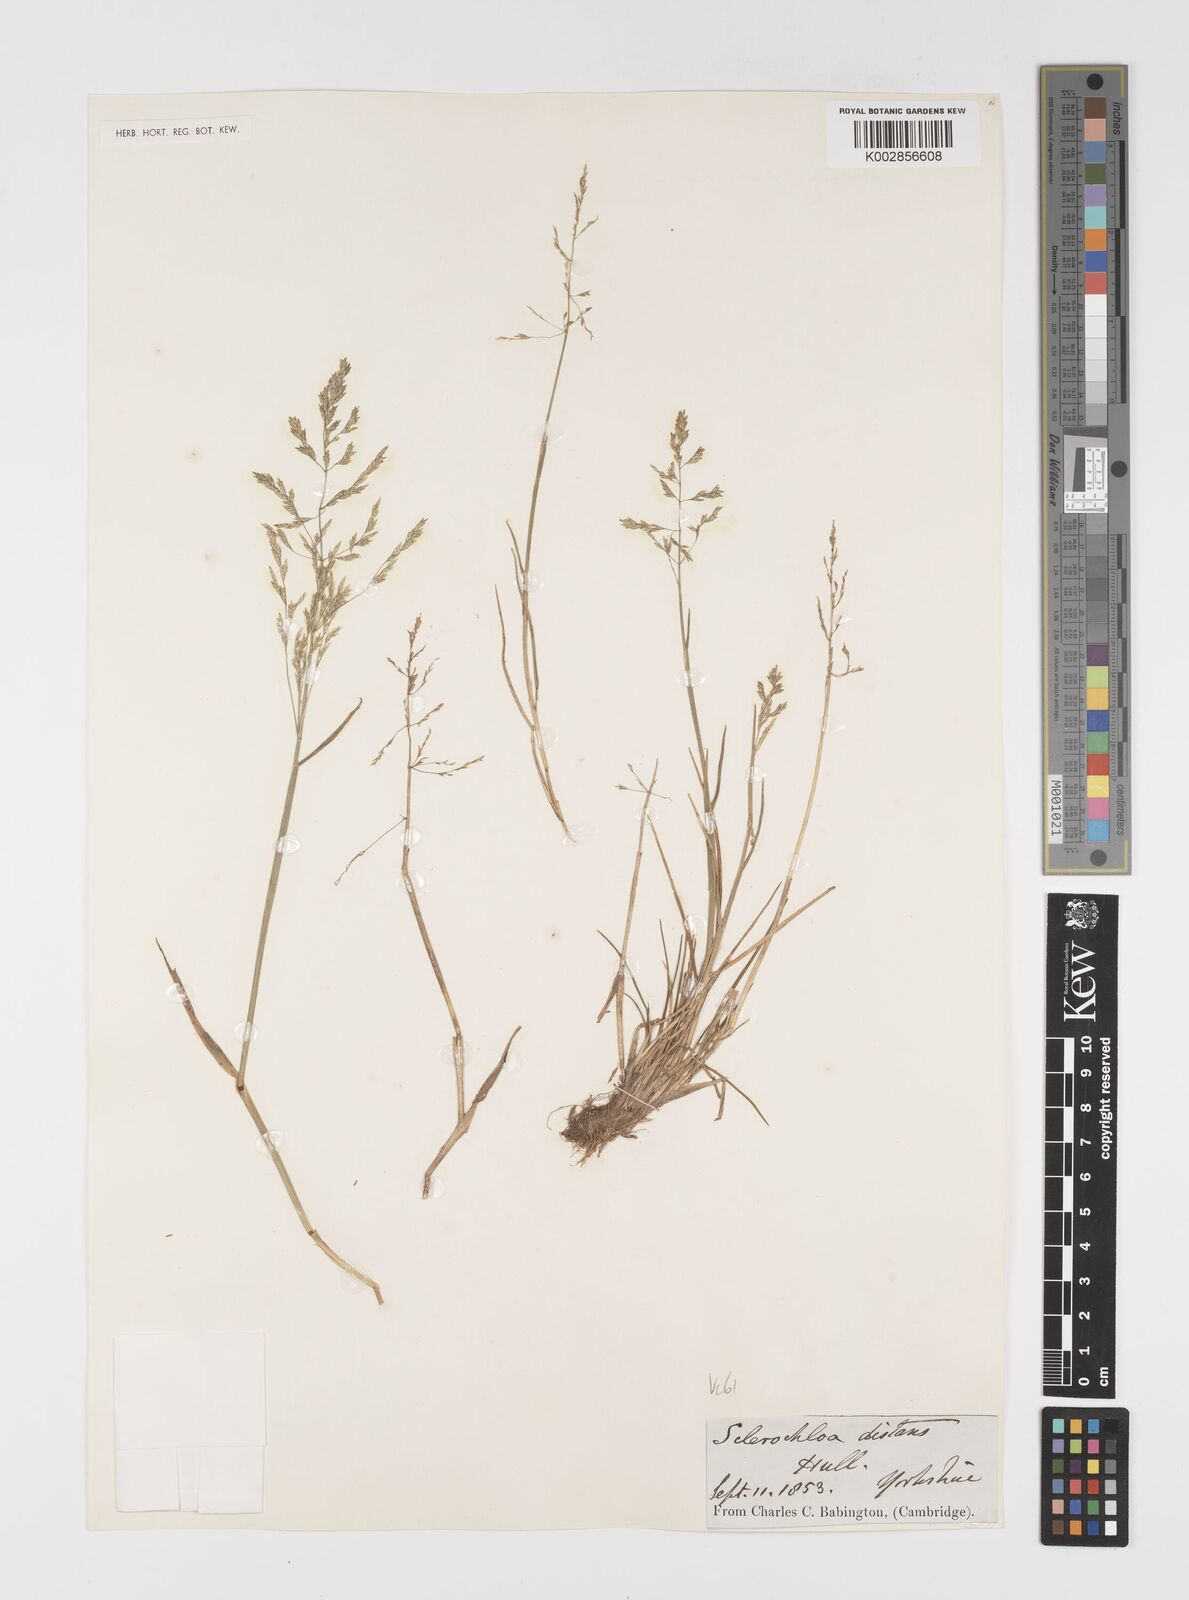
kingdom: Plantae
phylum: Tracheophyta
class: Liliopsida
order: Poales
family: Poaceae
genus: Puccinellia
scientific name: Puccinellia distans
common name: Weeping alkaligrass
